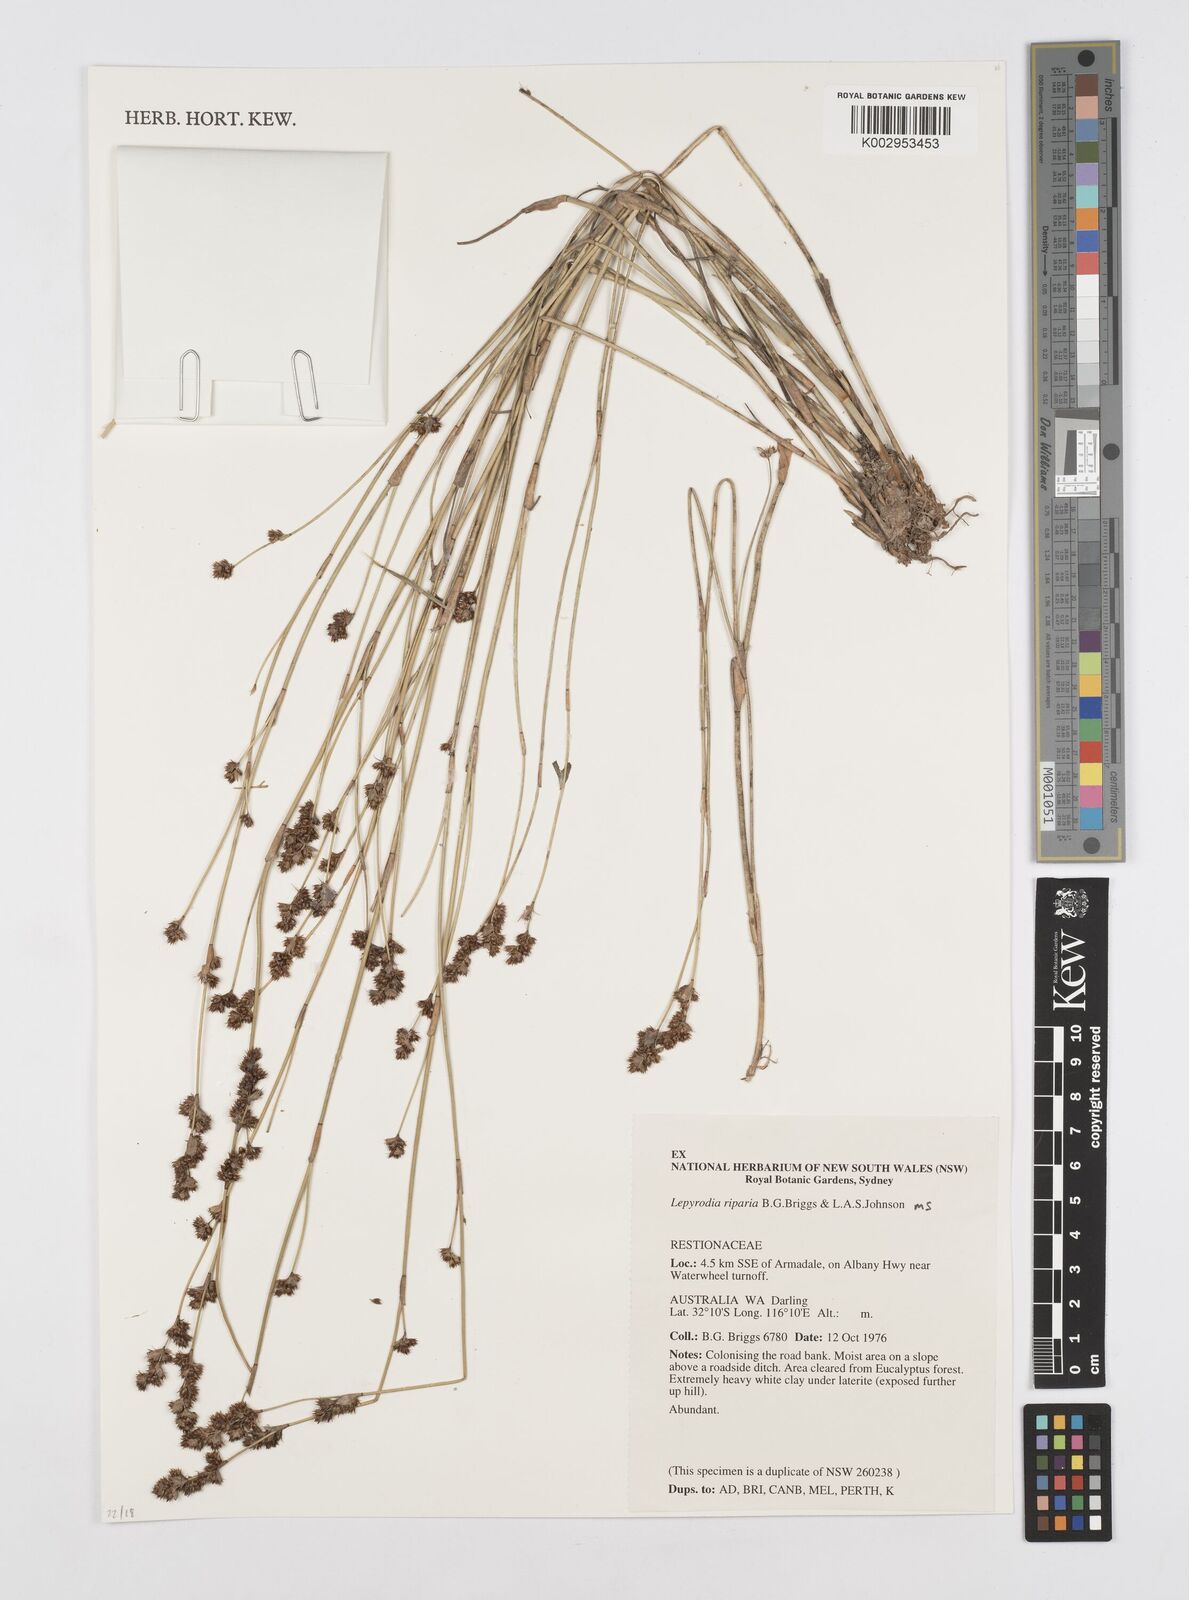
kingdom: Plantae
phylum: Tracheophyta
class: Liliopsida
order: Poales
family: Restionaceae
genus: Lepyrodia
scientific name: Lepyrodia riparia
